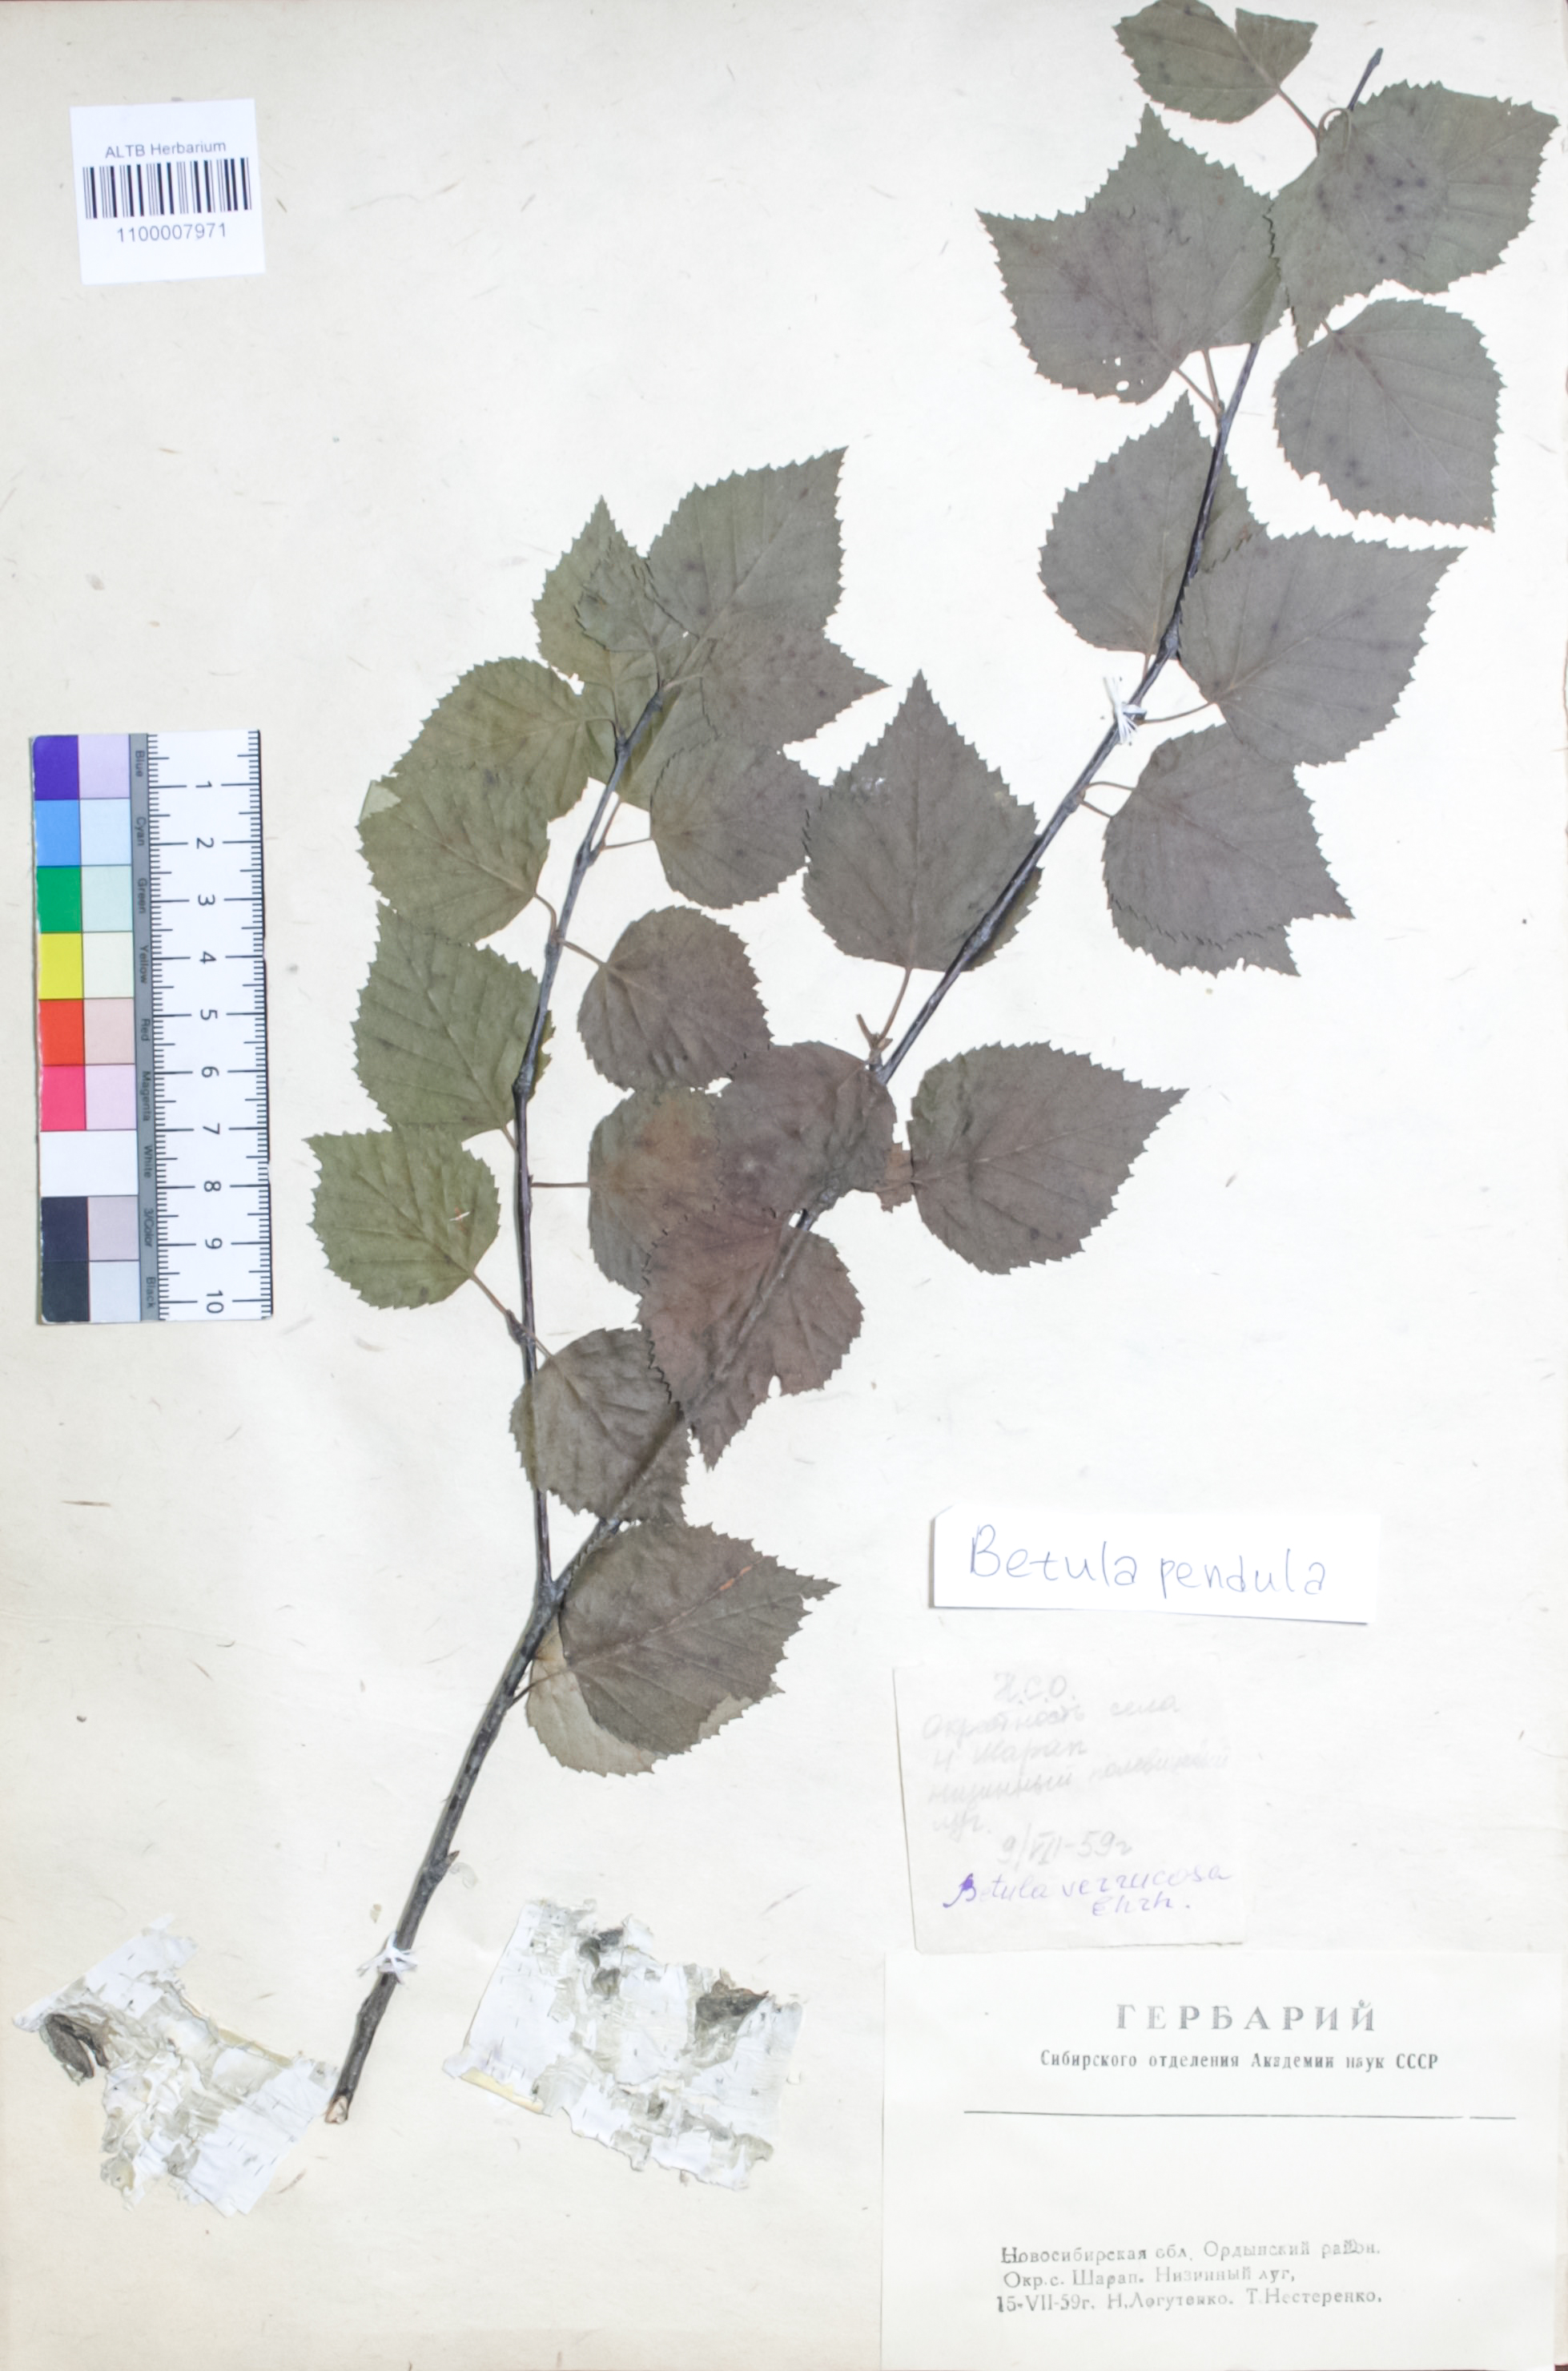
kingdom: Plantae
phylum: Tracheophyta
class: Magnoliopsida
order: Fagales
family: Betulaceae
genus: Betula
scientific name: Betula pendula
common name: Silver birch
